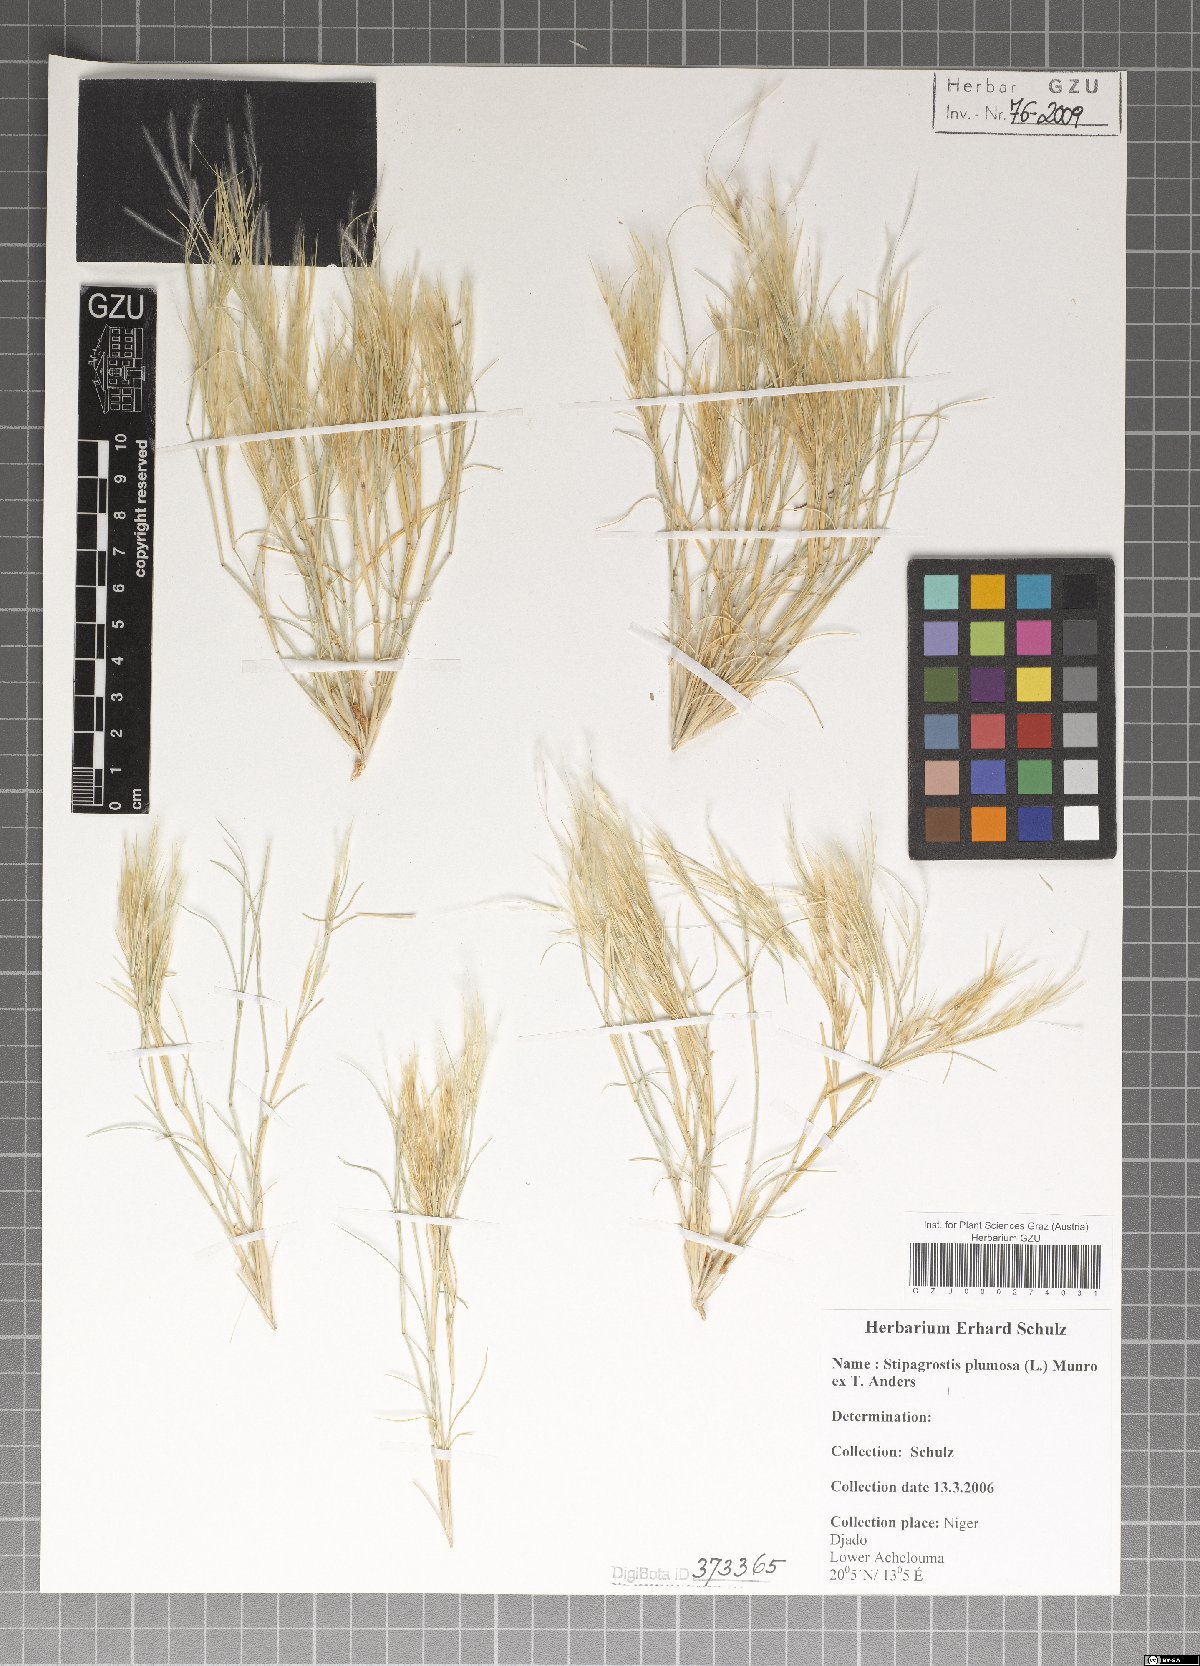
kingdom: Plantae
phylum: Tracheophyta
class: Liliopsida
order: Poales
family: Poaceae
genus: Stipagrostis
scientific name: Stipagrostis plumosa
